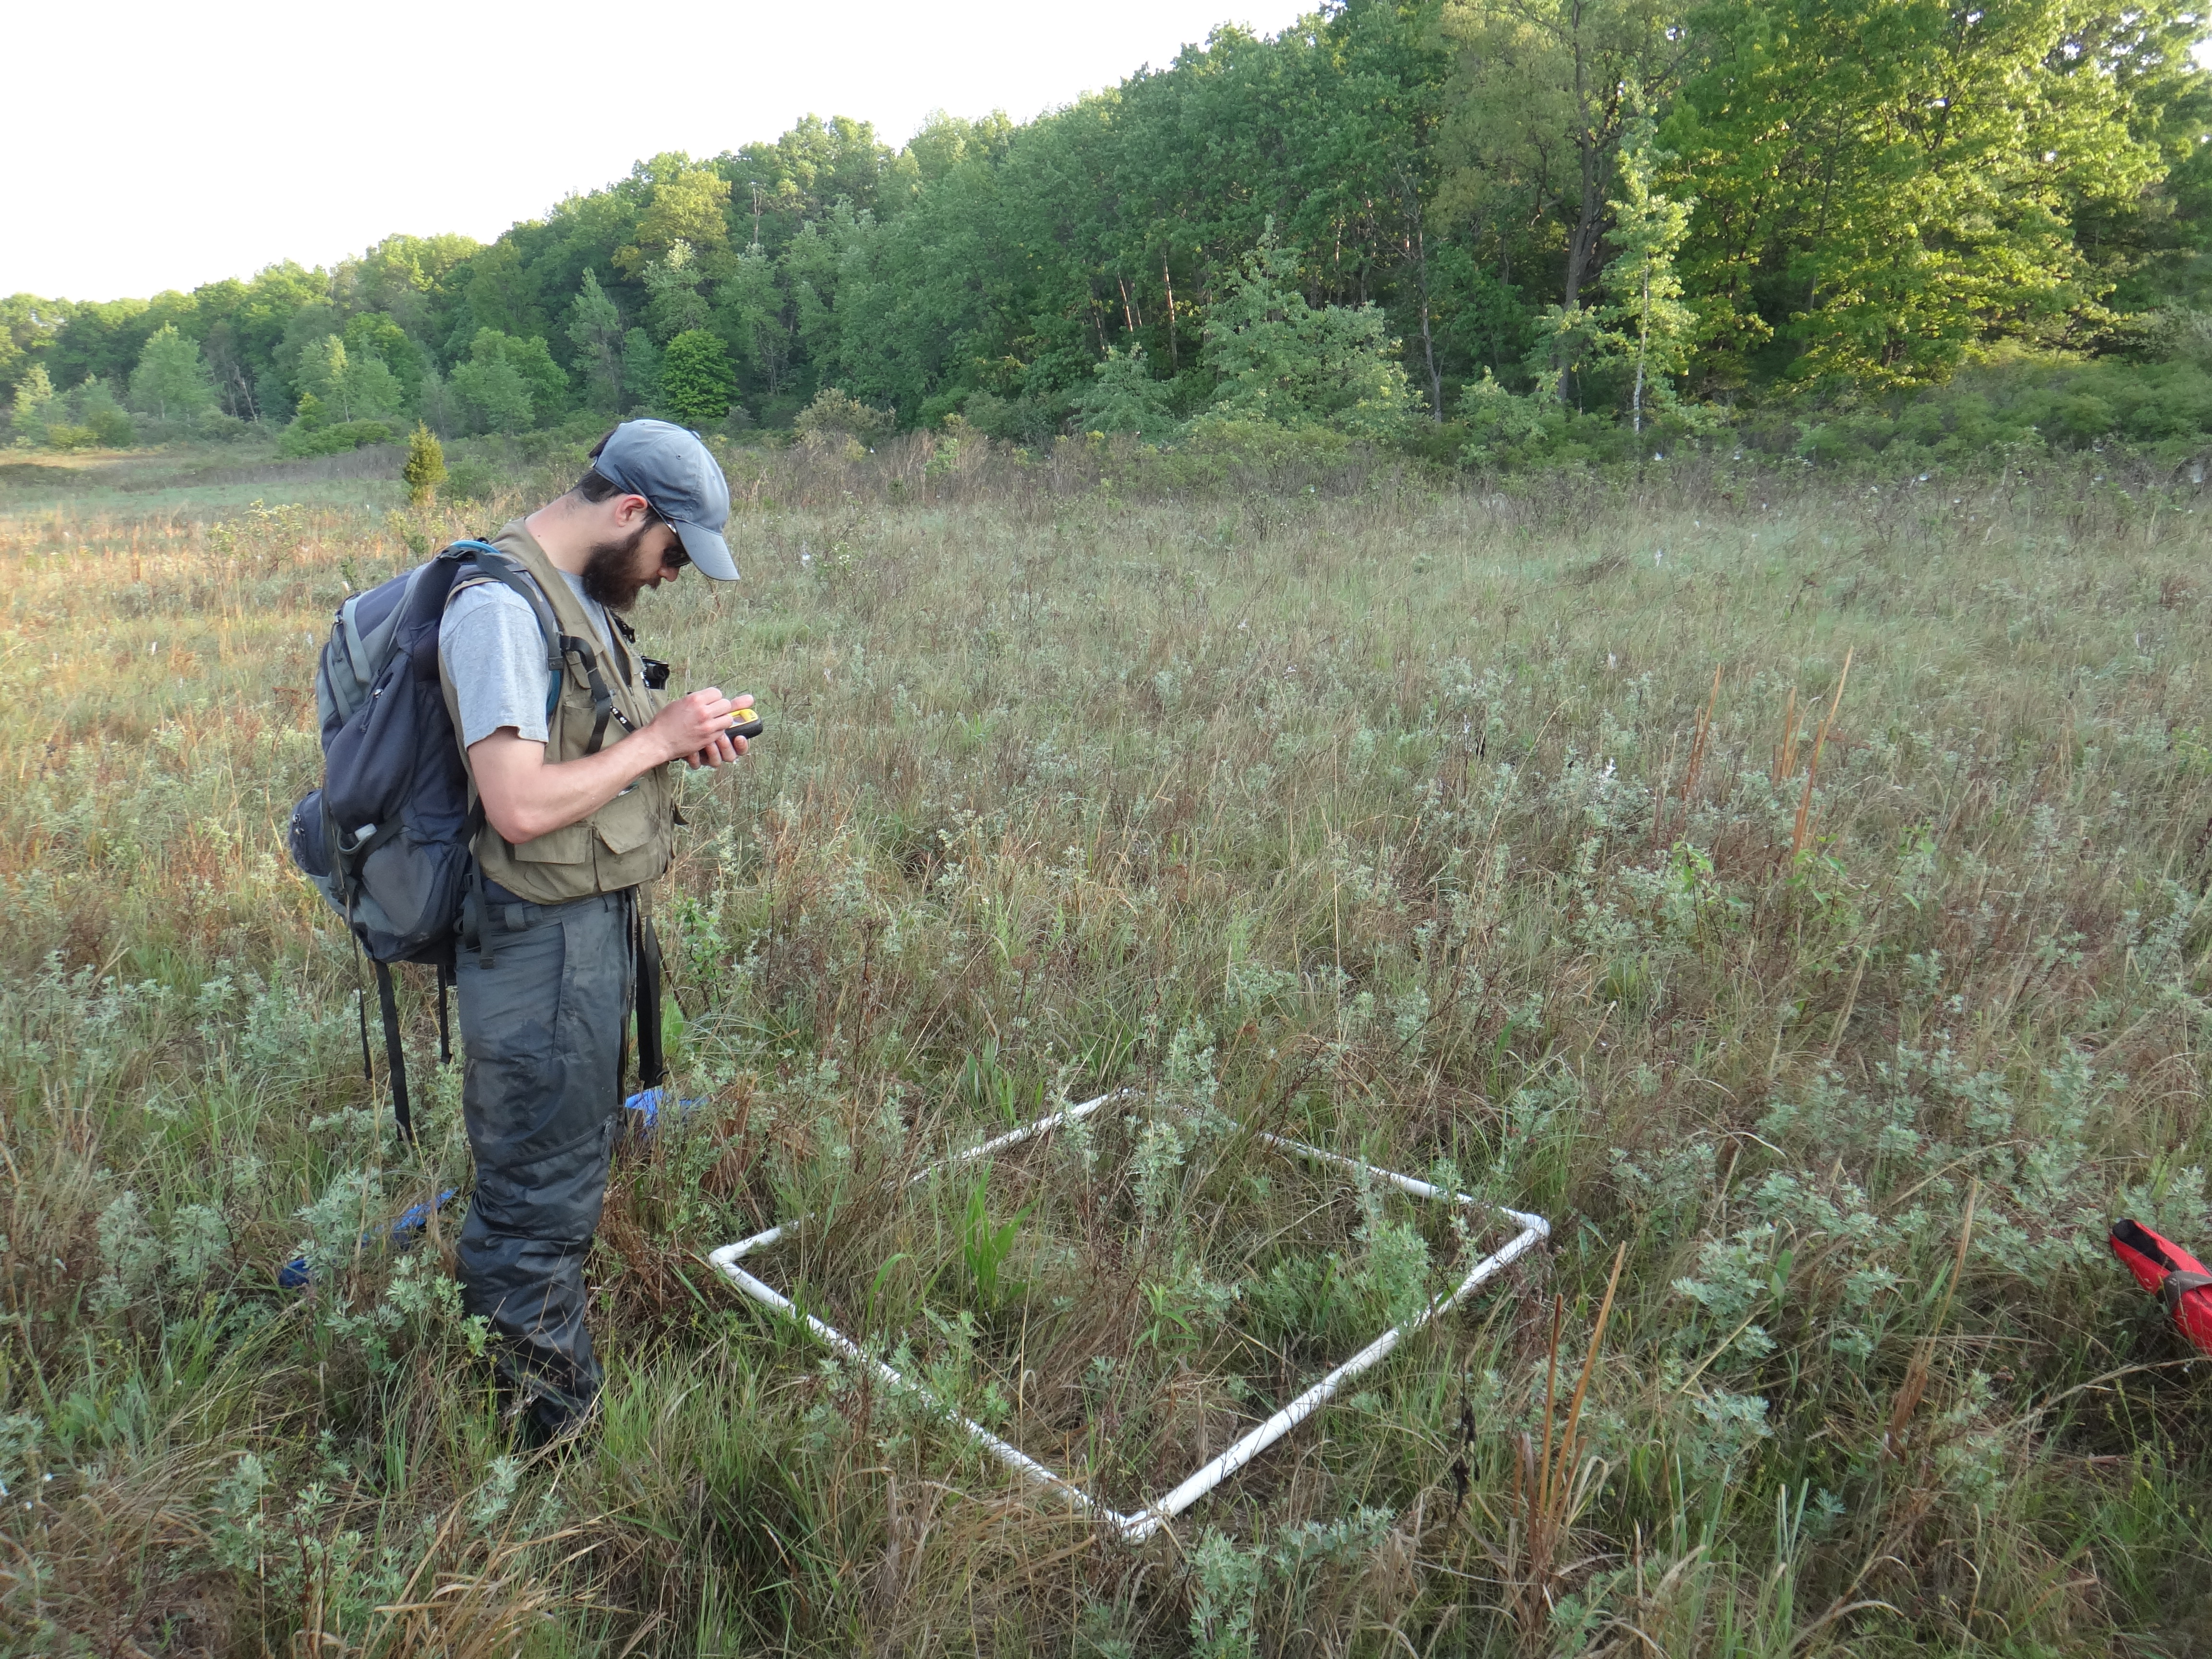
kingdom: Plantae
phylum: Tracheophyta
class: Magnoliopsida
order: Lamiales
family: Lamiaceae
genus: Lycopus
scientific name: Lycopus uniflorus
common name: Northern bugleweed
